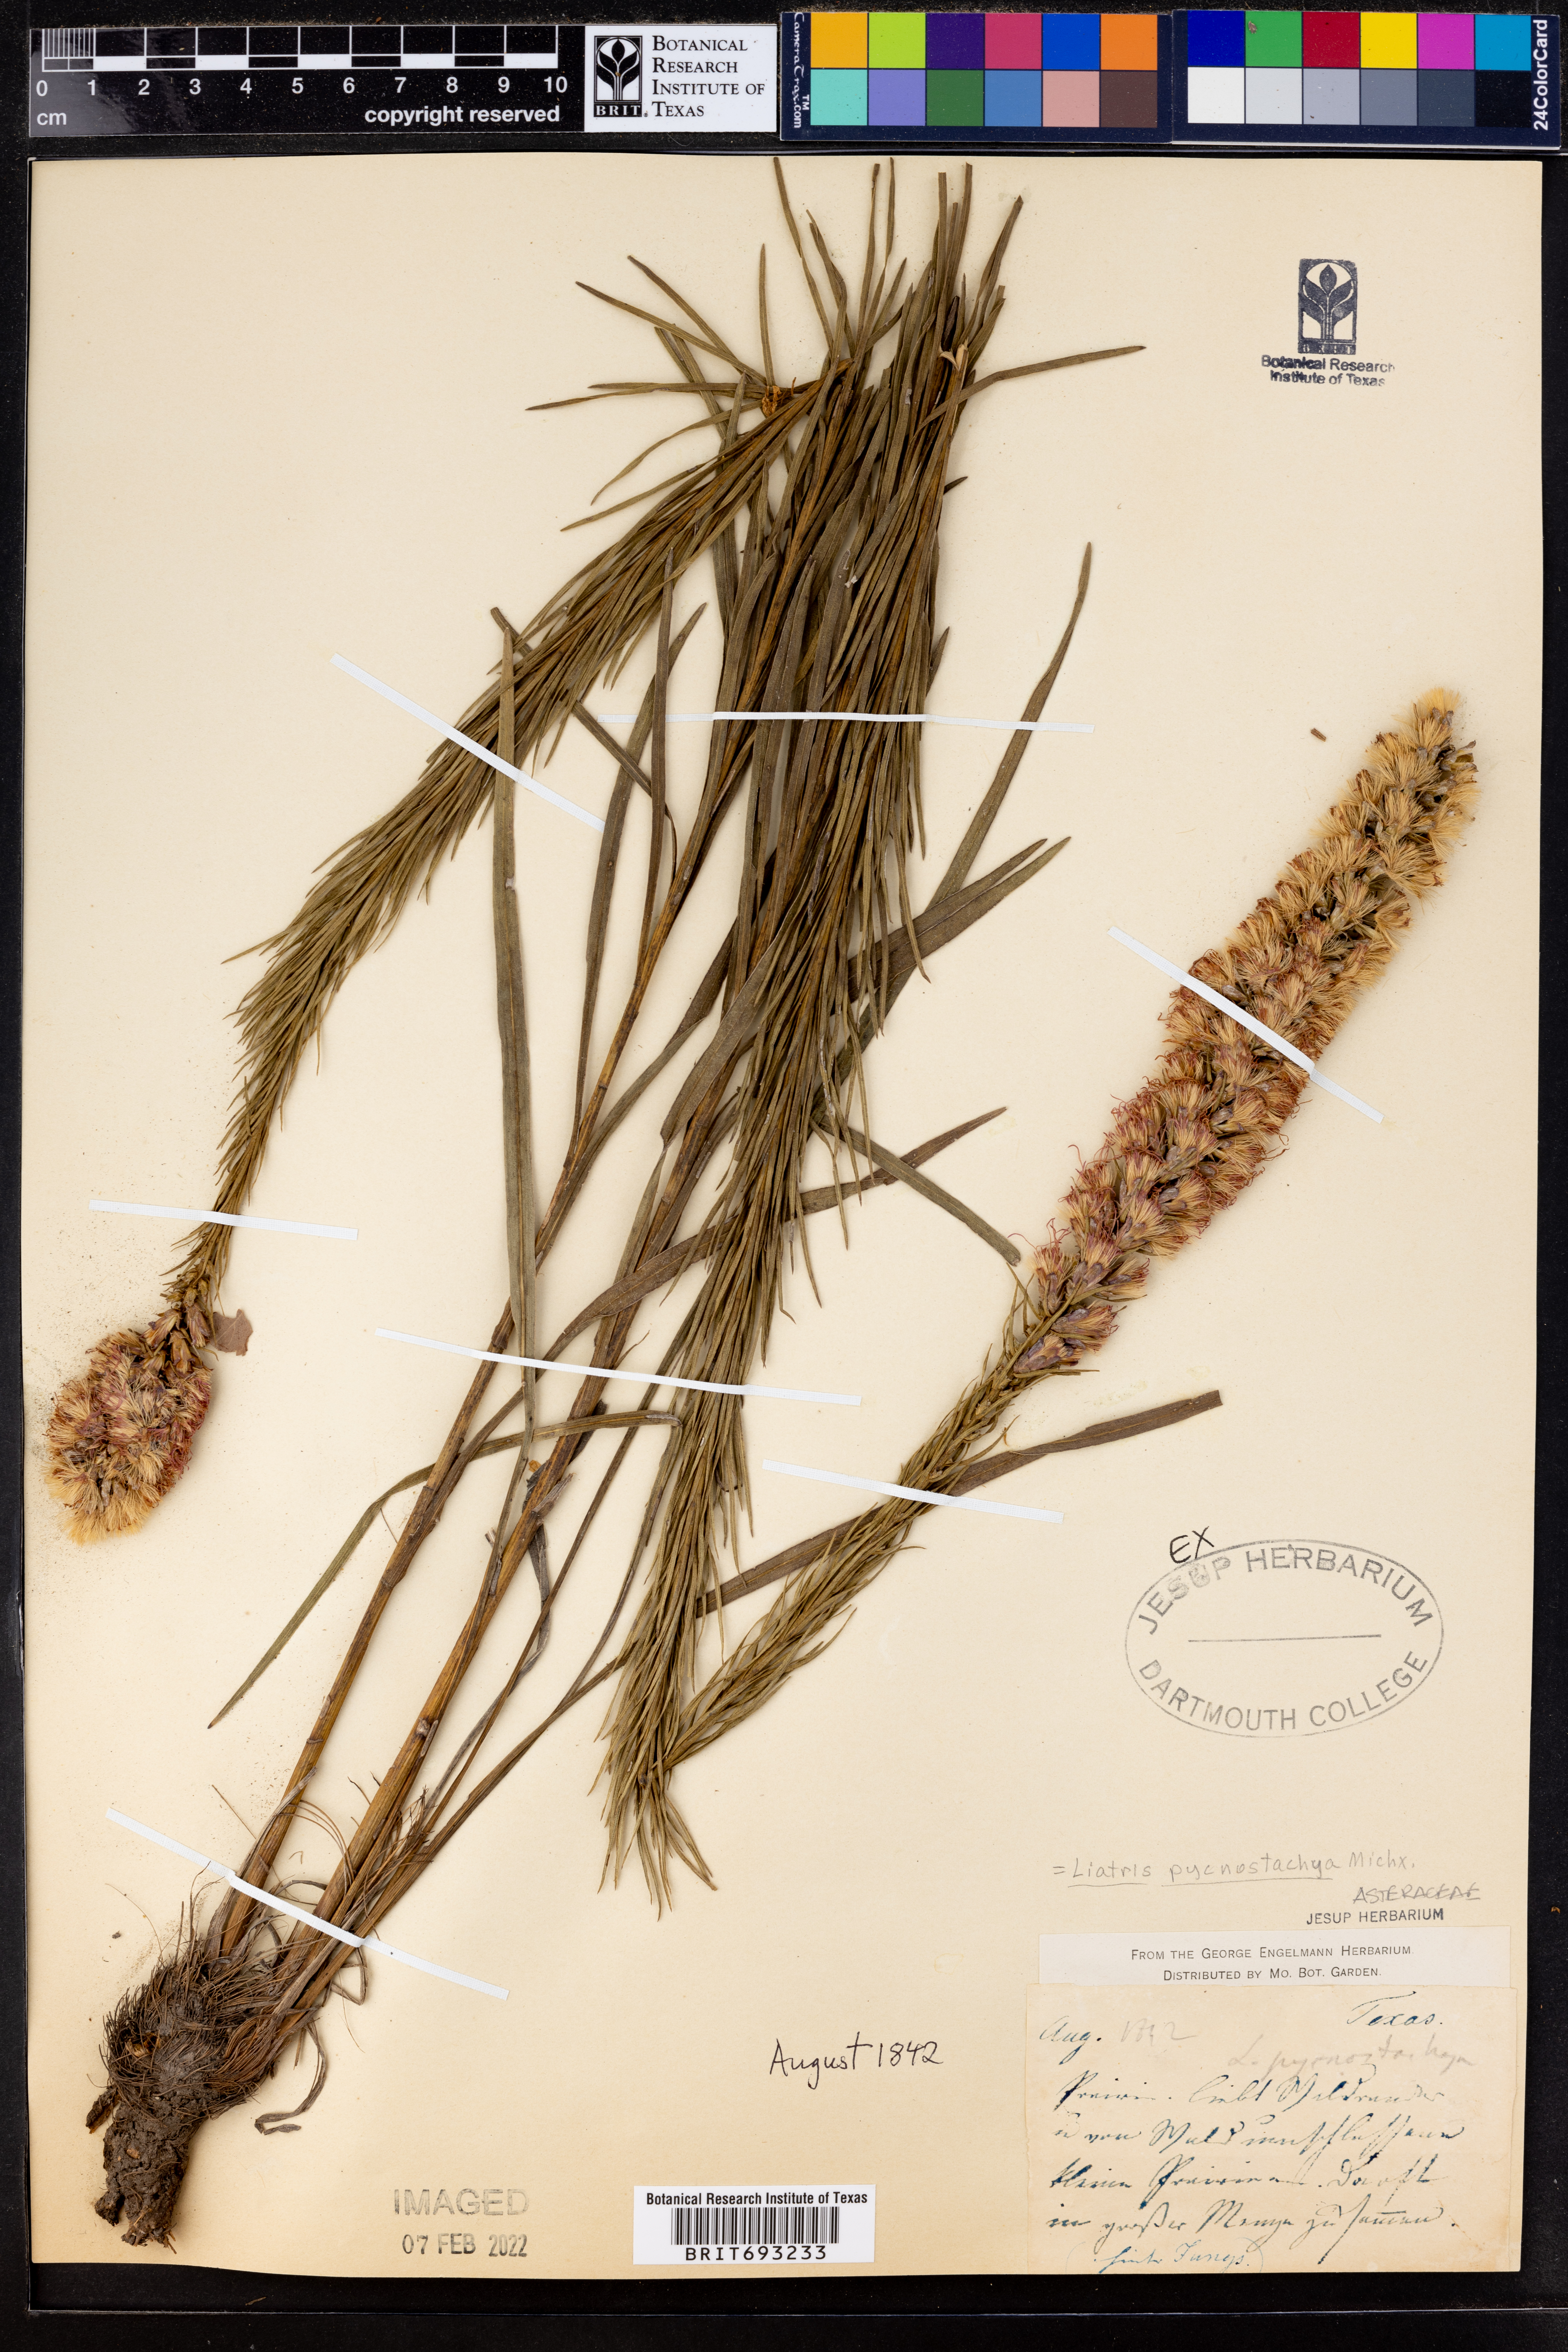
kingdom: Plantae
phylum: Tracheophyta
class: Magnoliopsida
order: Asterales
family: Asteraceae
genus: Liatris
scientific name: Liatris pycnostachya
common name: Cattail gayfeather
